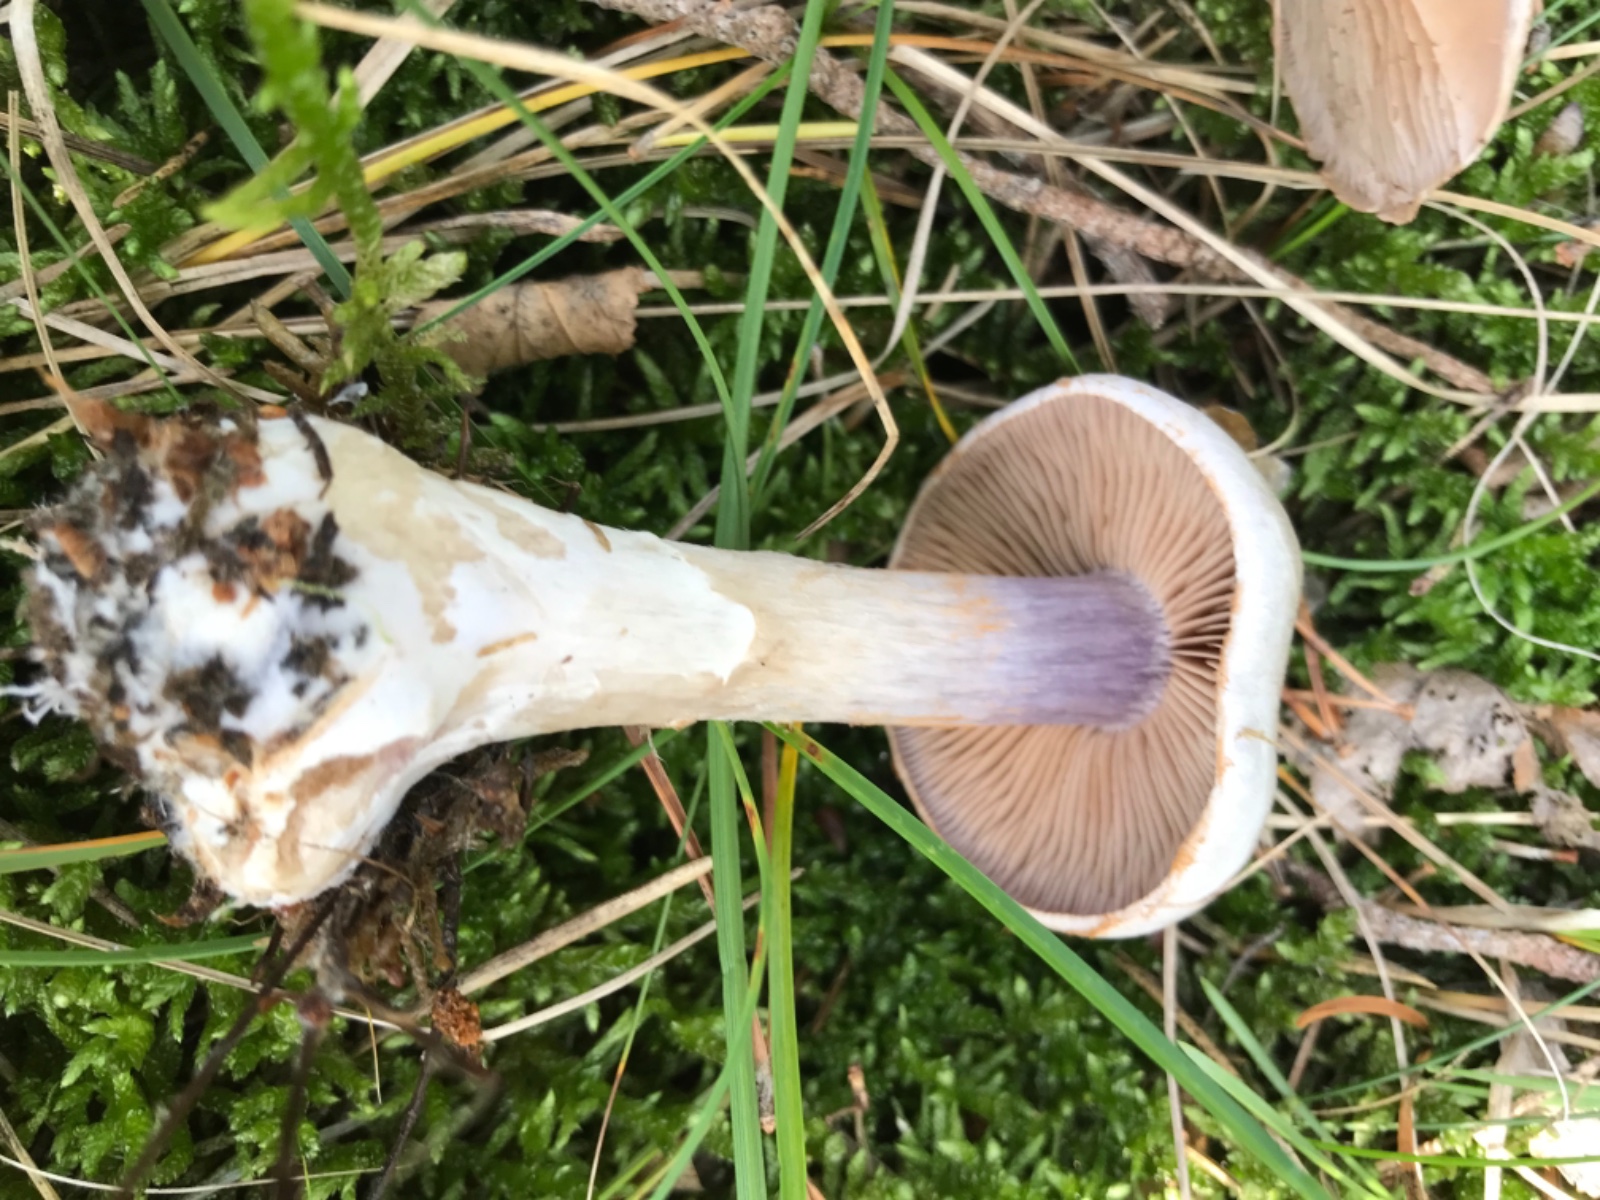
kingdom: Fungi
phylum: Basidiomycota
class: Agaricomycetes
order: Agaricales
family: Cortinariaceae
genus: Cortinarius
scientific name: Cortinarius quarciticus
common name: kvarts-slørhat
